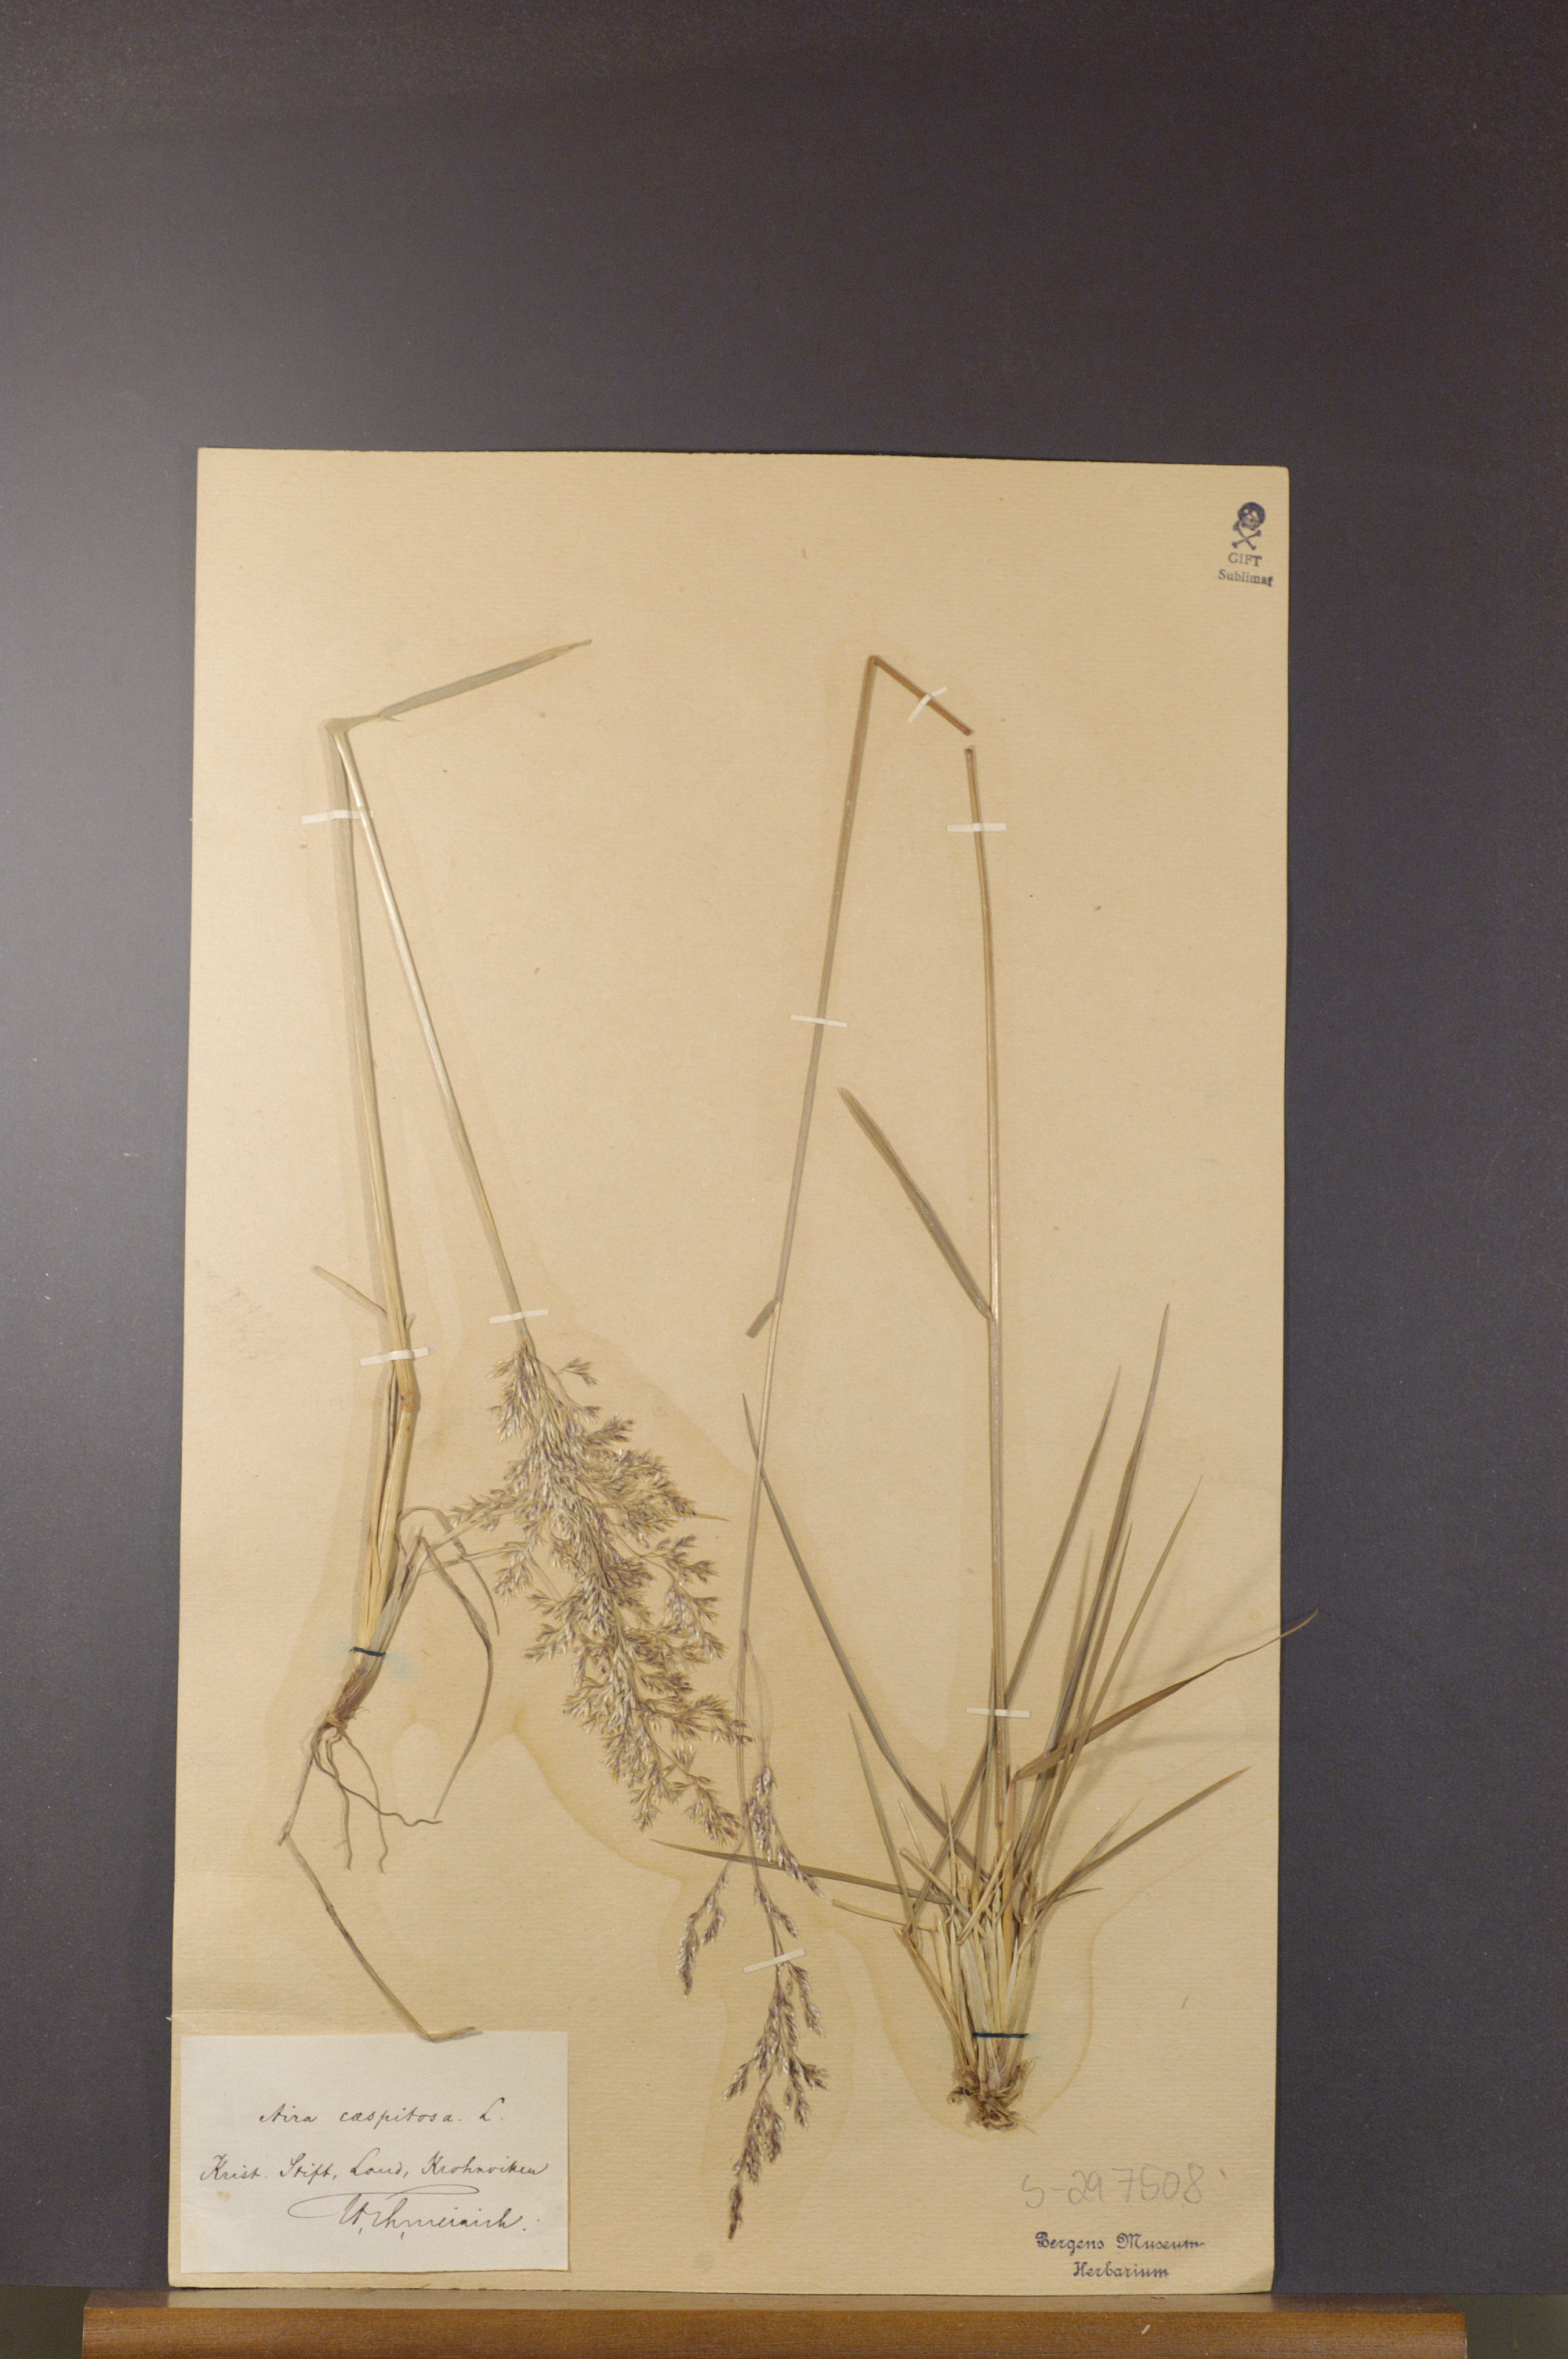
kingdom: Plantae
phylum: Tracheophyta
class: Liliopsida
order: Poales
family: Poaceae
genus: Deschampsia
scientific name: Deschampsia cespitosa
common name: Tufted hair-grass
